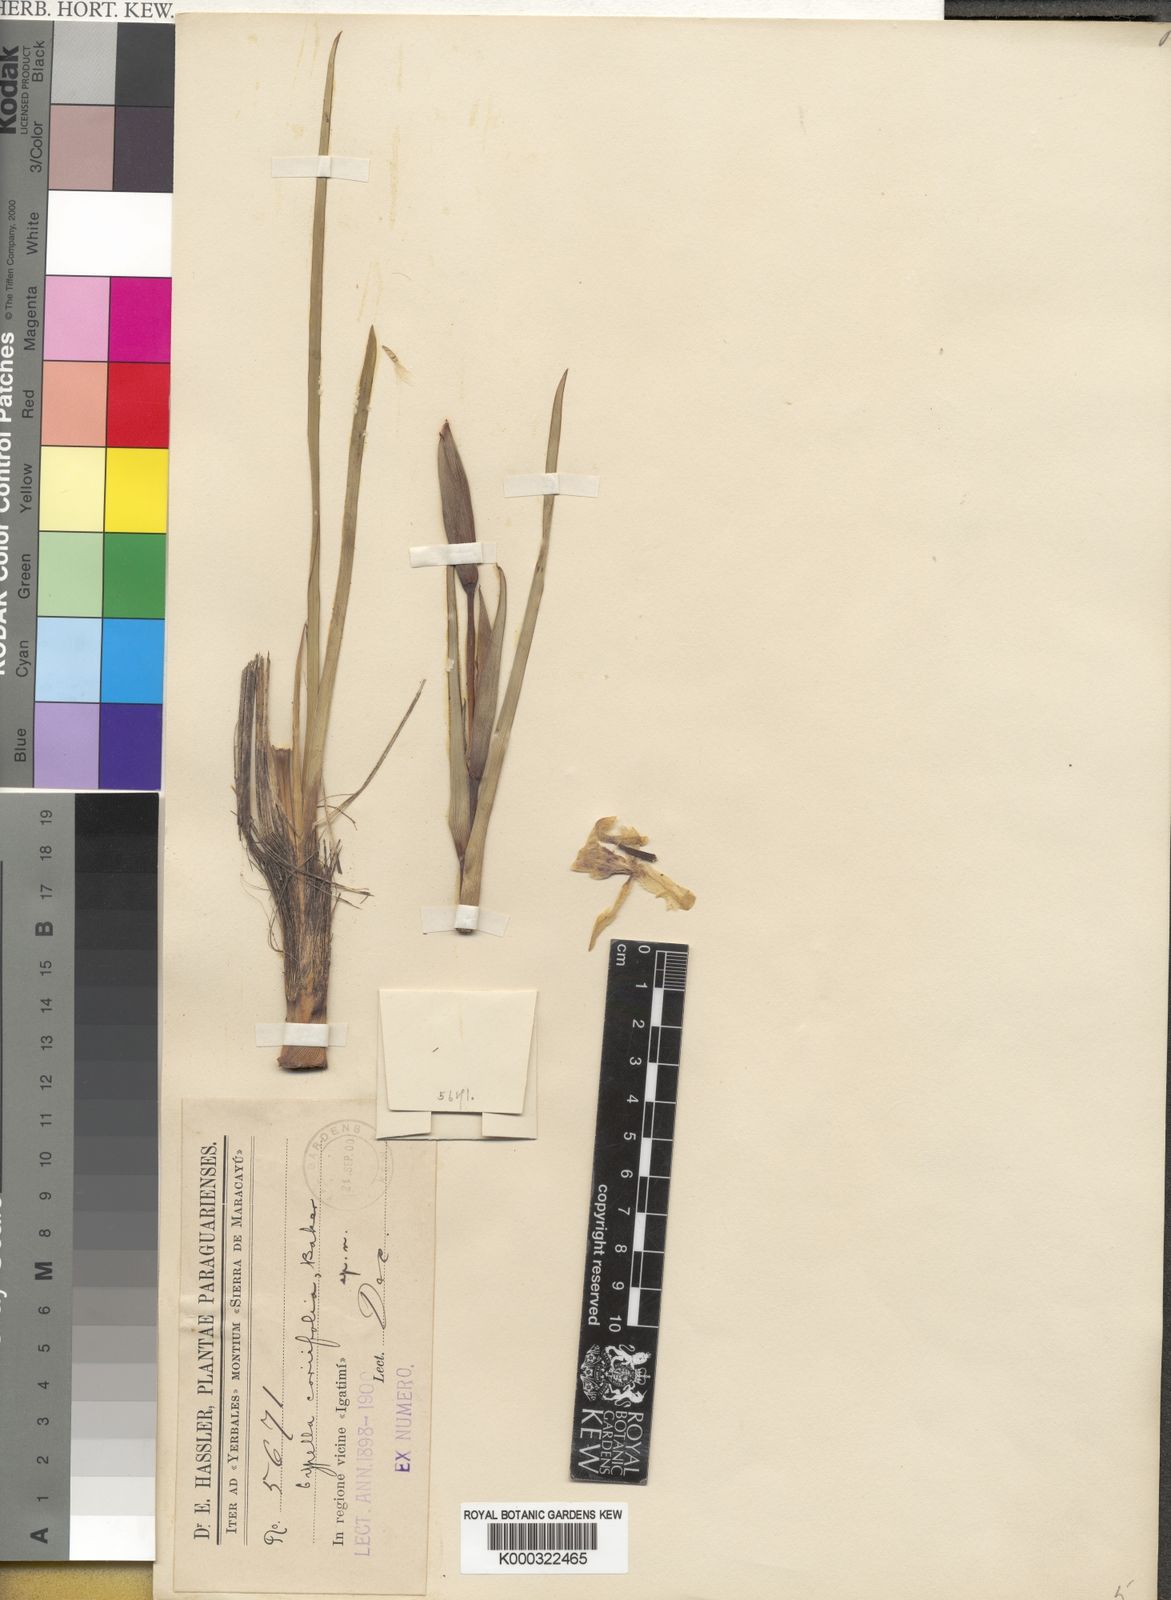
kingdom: Plantae
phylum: Tracheophyta
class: Liliopsida
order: Asparagales
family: Iridaceae
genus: Trimezia
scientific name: Trimezia spathata
